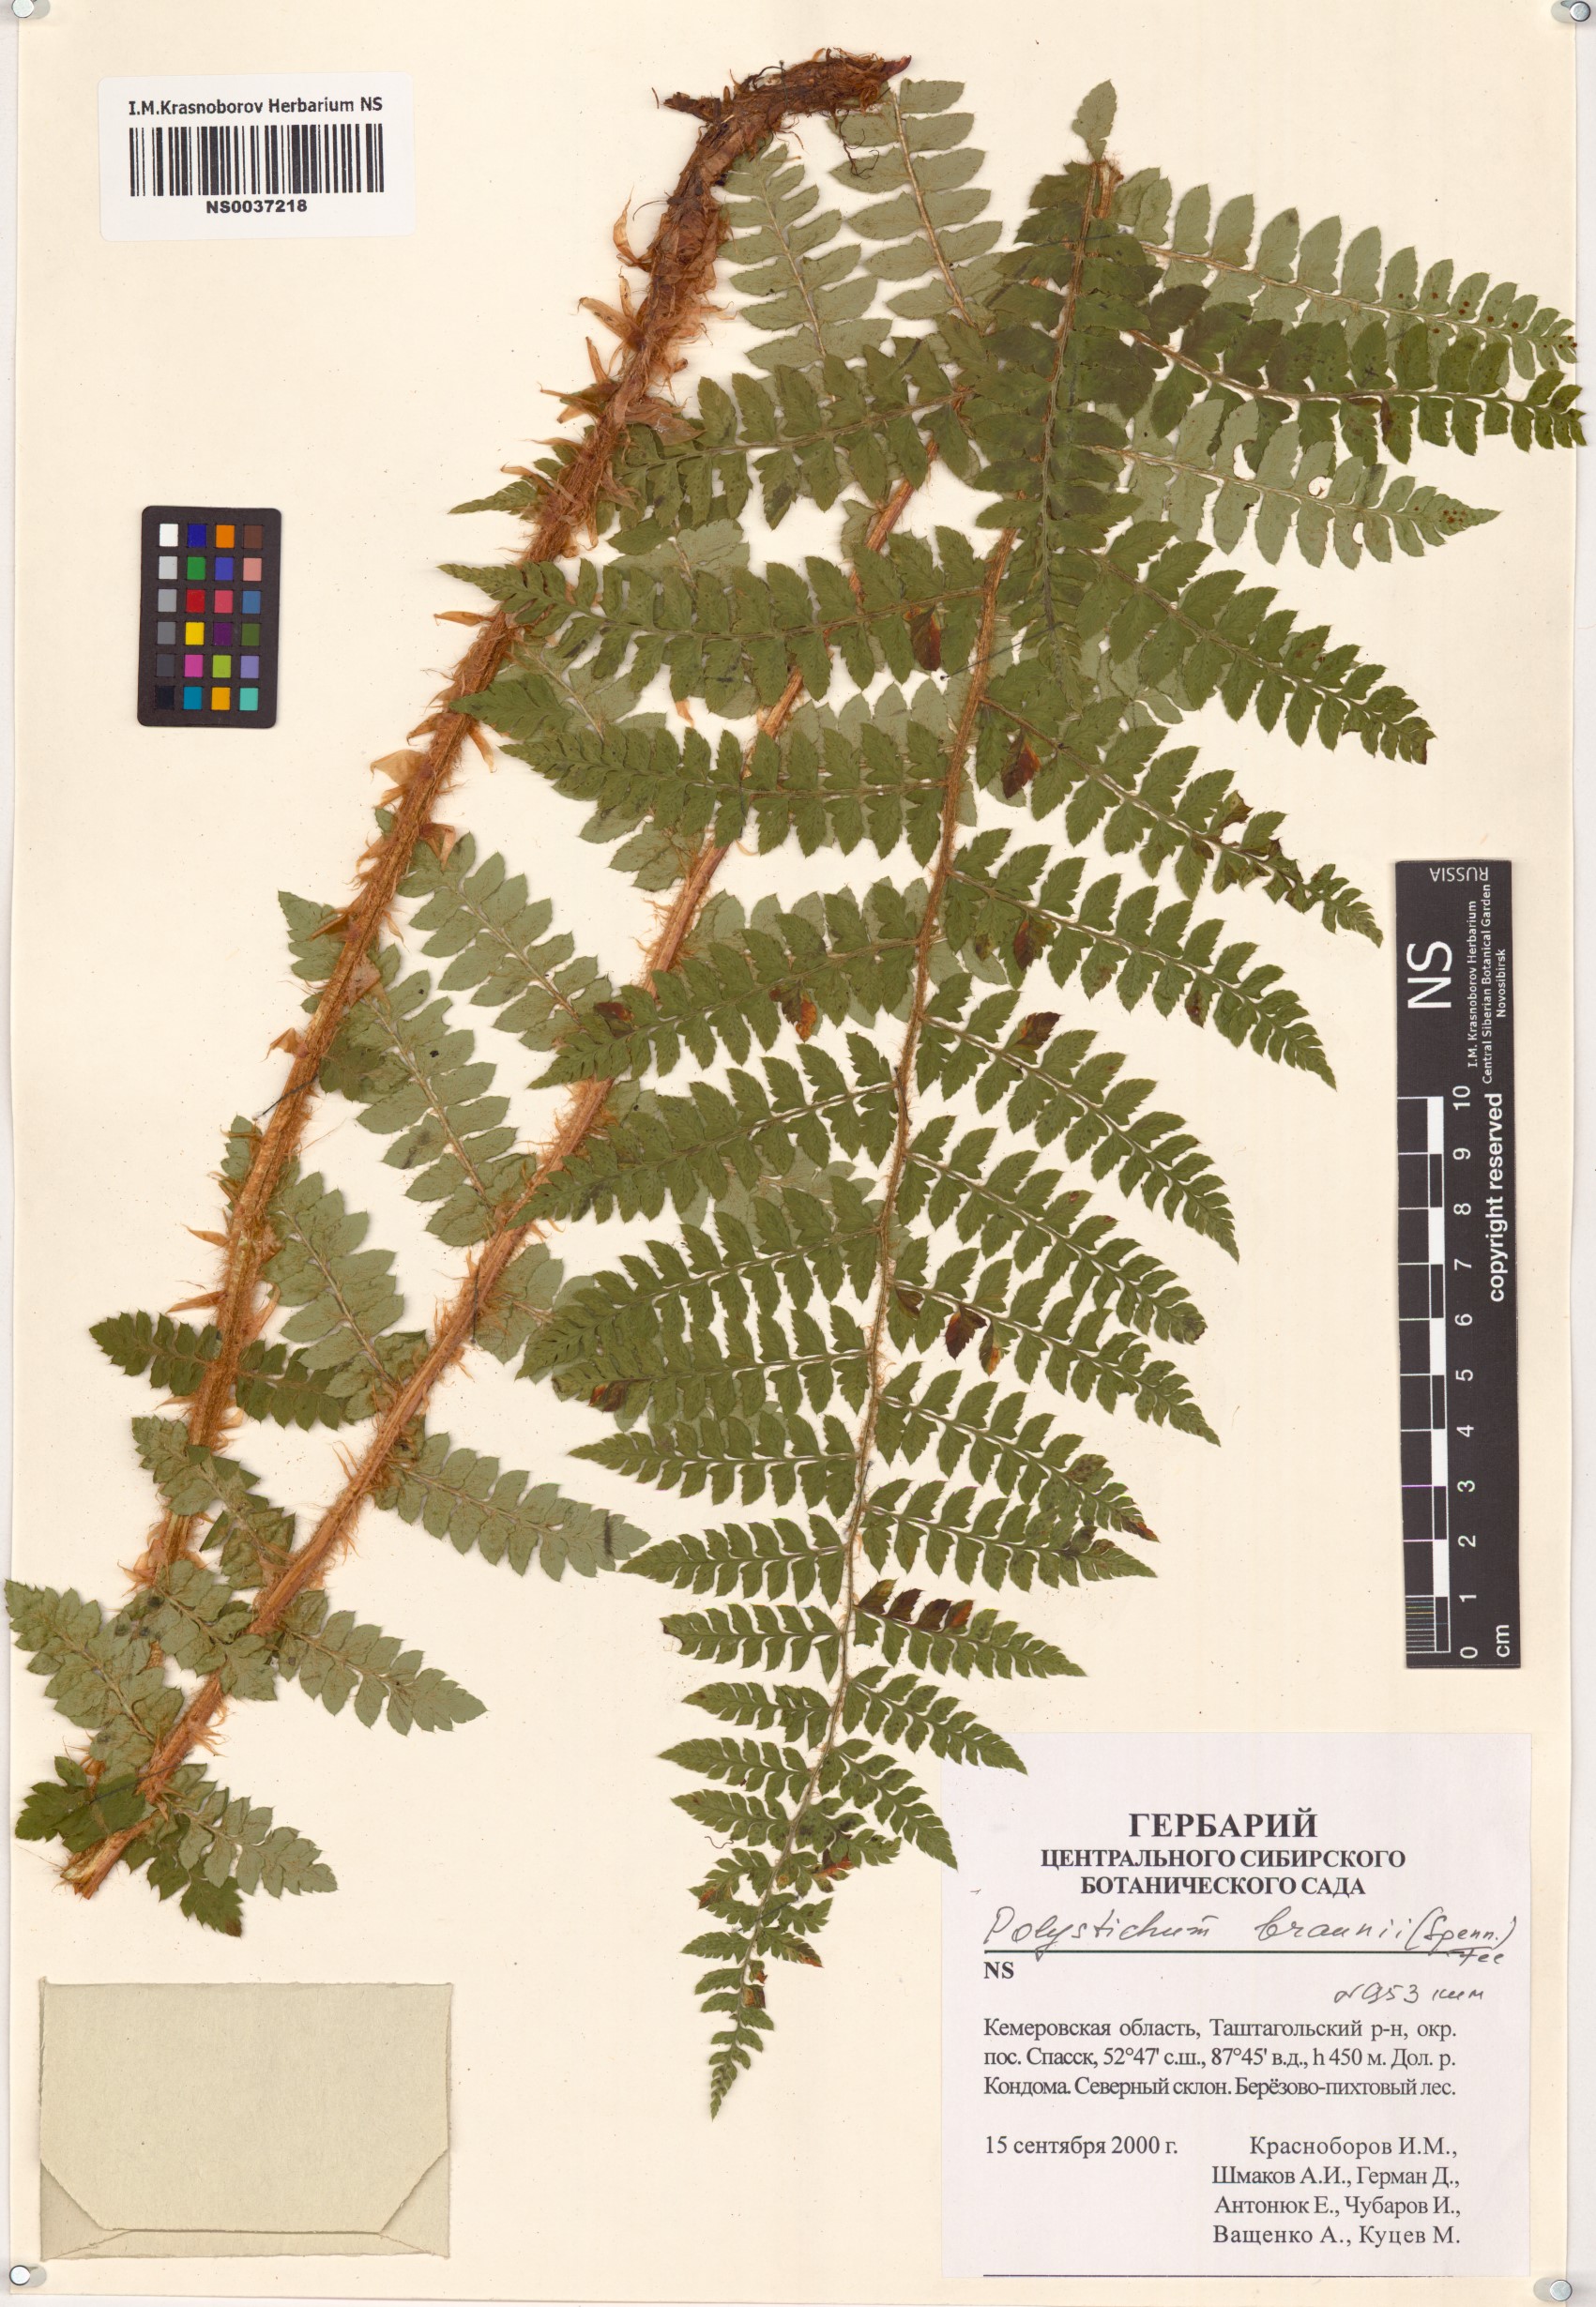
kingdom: Plantae
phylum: Tracheophyta
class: Polypodiopsida
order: Polypodiales
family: Dryopteridaceae
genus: Polystichum
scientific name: Polystichum braunii
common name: Braun's holly fern
